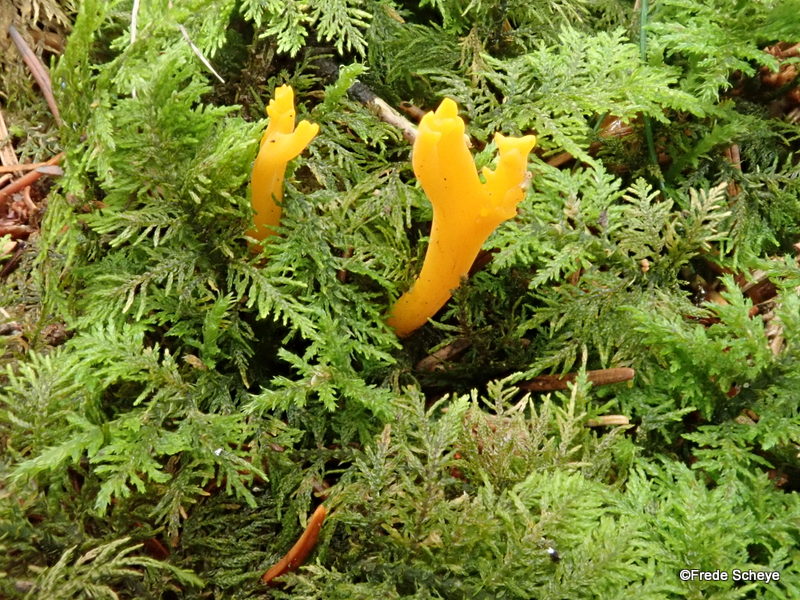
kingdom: Fungi
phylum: Basidiomycota
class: Dacrymycetes
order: Dacrymycetales
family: Dacrymycetaceae
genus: Calocera
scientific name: Calocera viscosa
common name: almindelig guldgaffel
